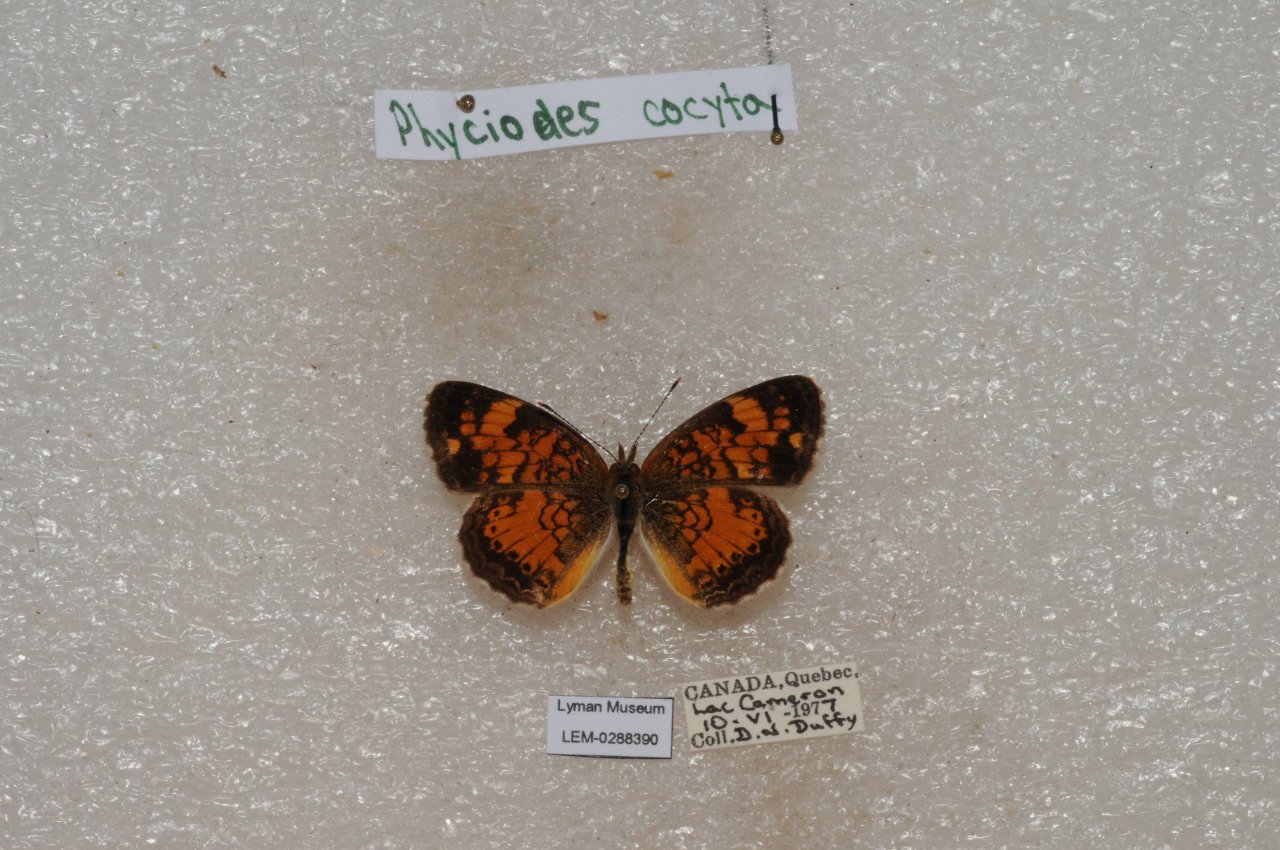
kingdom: Animalia
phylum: Arthropoda
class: Insecta
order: Lepidoptera
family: Nymphalidae
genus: Phyciodes
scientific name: Phyciodes tharos
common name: Northern Crescent
